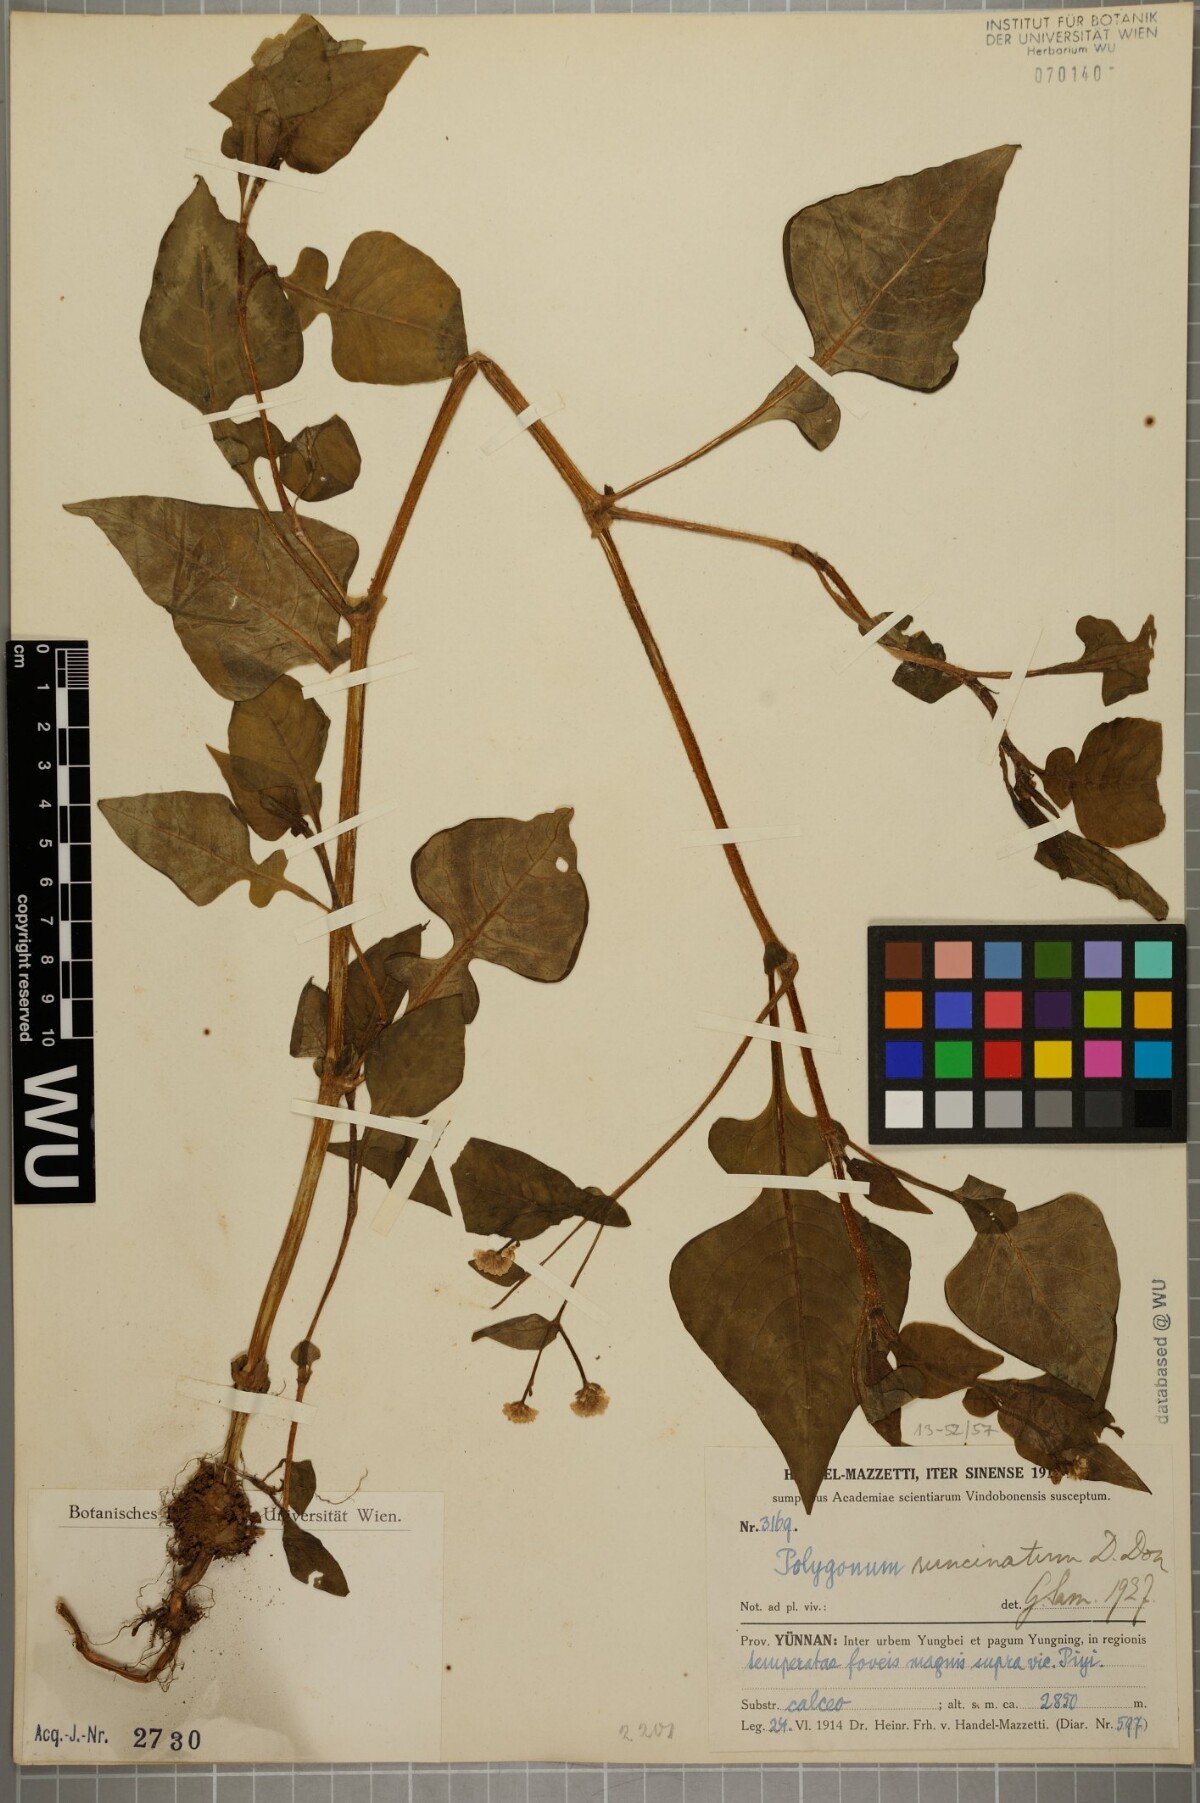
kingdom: Plantae
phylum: Tracheophyta
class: Magnoliopsida
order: Caryophyllales
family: Polygonaceae
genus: Persicaria
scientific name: Persicaria runcinata
